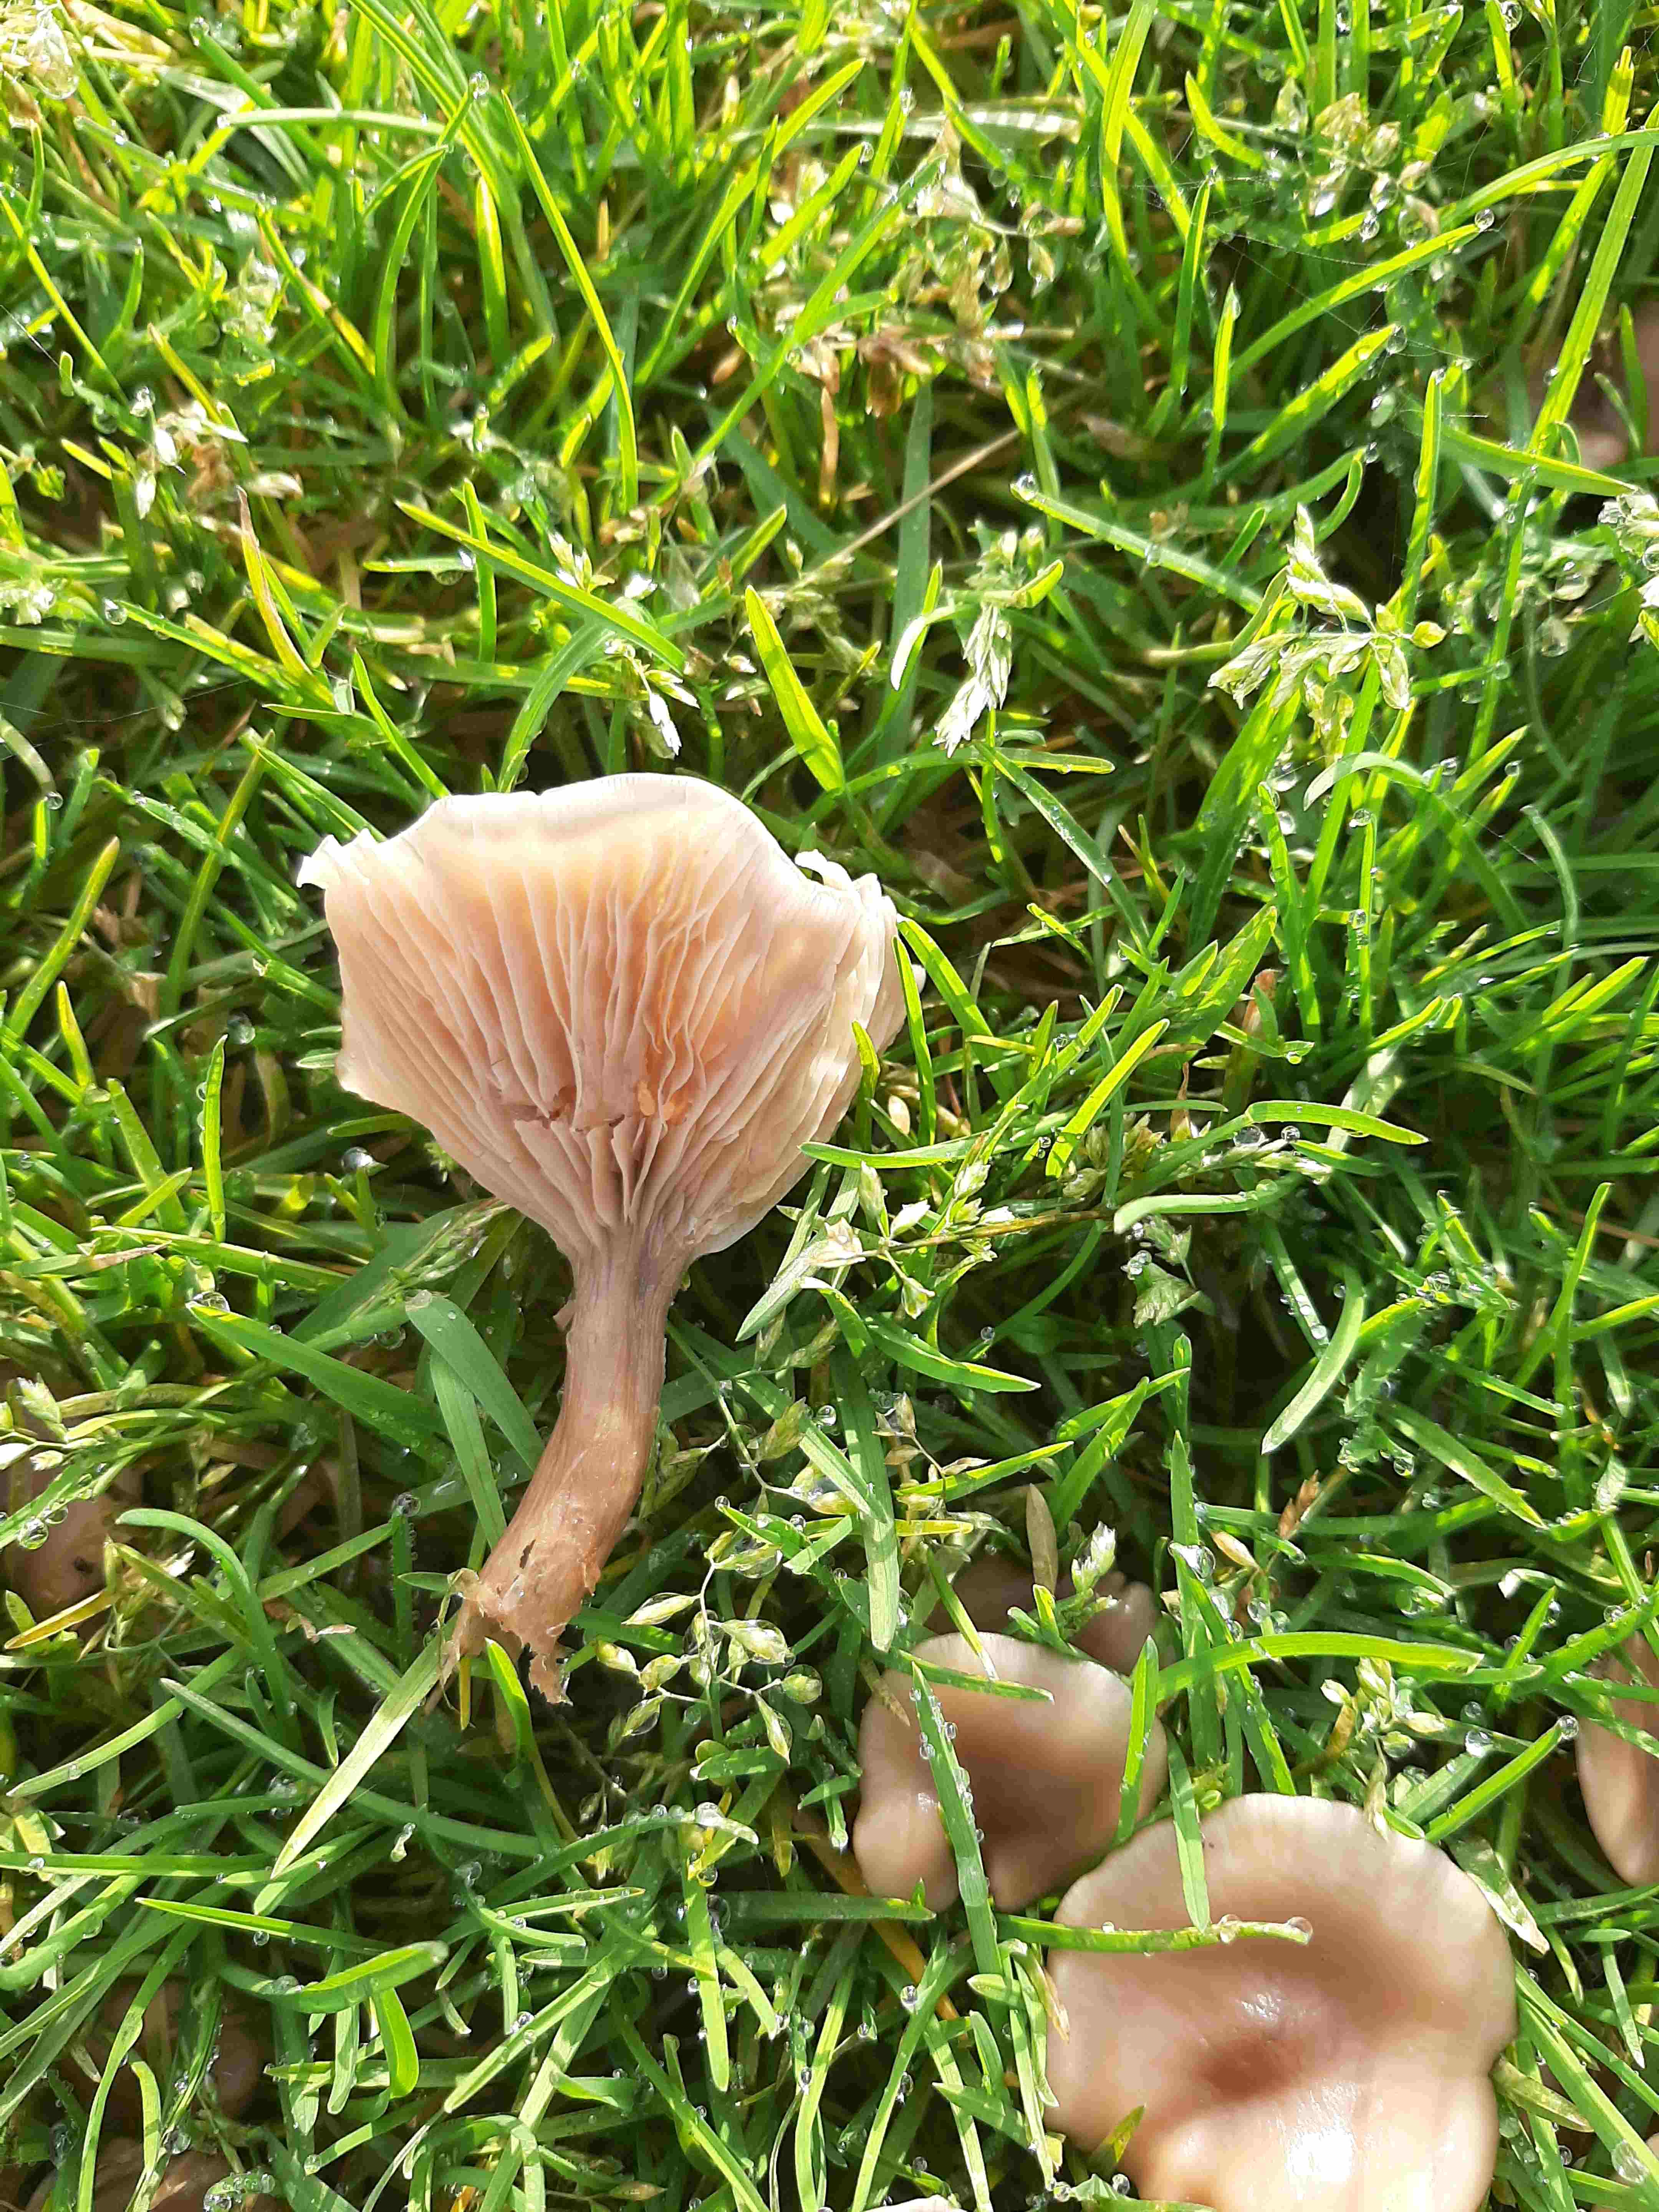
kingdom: Fungi
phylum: Basidiomycota
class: Agaricomycetes
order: Agaricales
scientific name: Agaricales
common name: champignonordenen
